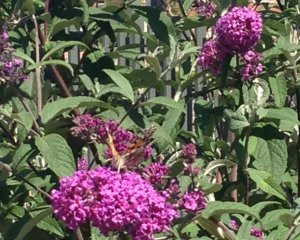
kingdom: Animalia
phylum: Arthropoda
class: Insecta
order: Lepidoptera
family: Nymphalidae
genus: Vanessa
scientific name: Vanessa cardui
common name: Painted Lady
